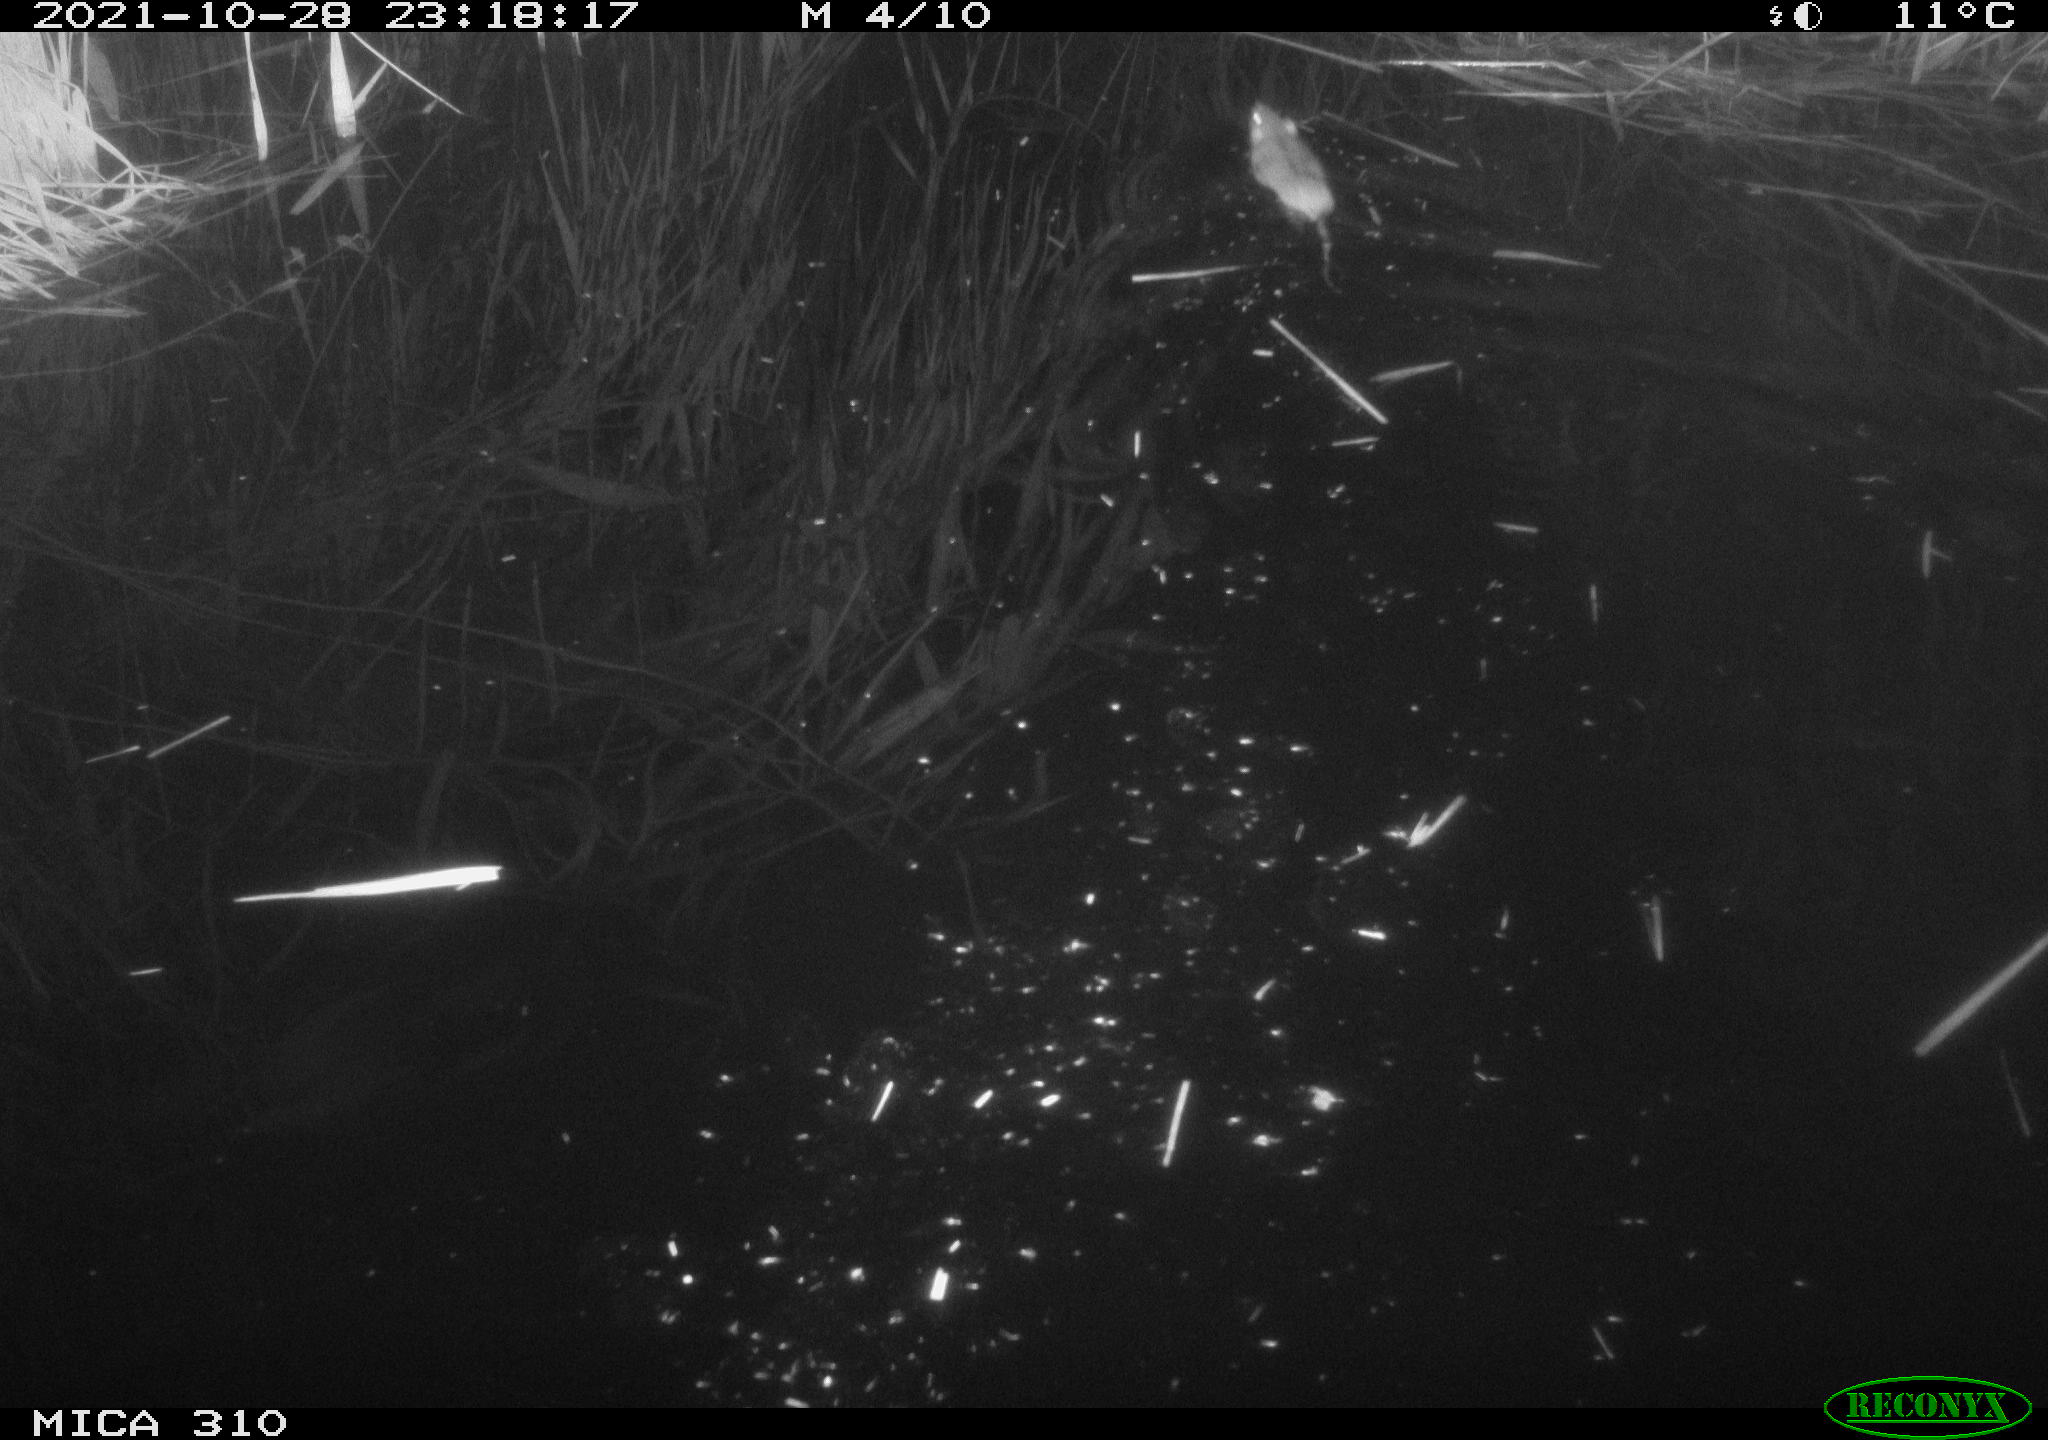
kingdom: Animalia
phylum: Chordata
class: Mammalia
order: Rodentia
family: Muridae
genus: Rattus
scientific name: Rattus norvegicus
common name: Brown rat
